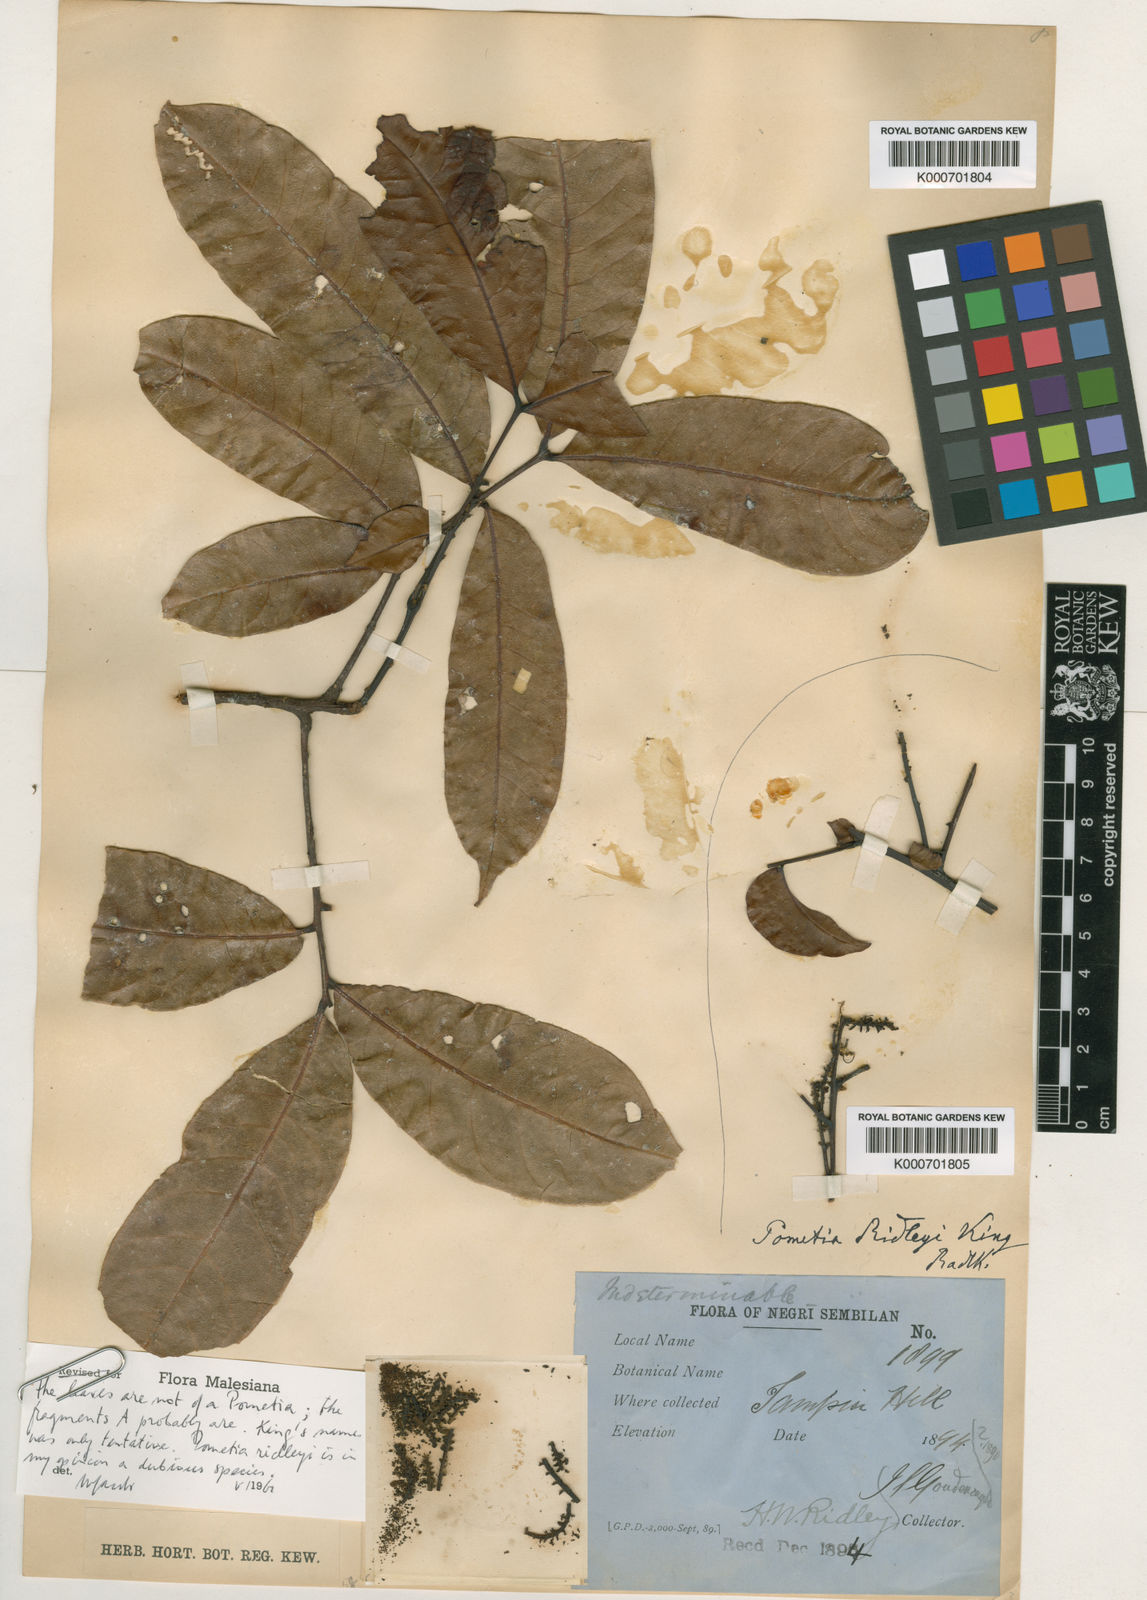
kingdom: Plantae
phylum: Tracheophyta
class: Magnoliopsida
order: Sapindales
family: Sapindaceae
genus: Pometia
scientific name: Pometia ridleyi
